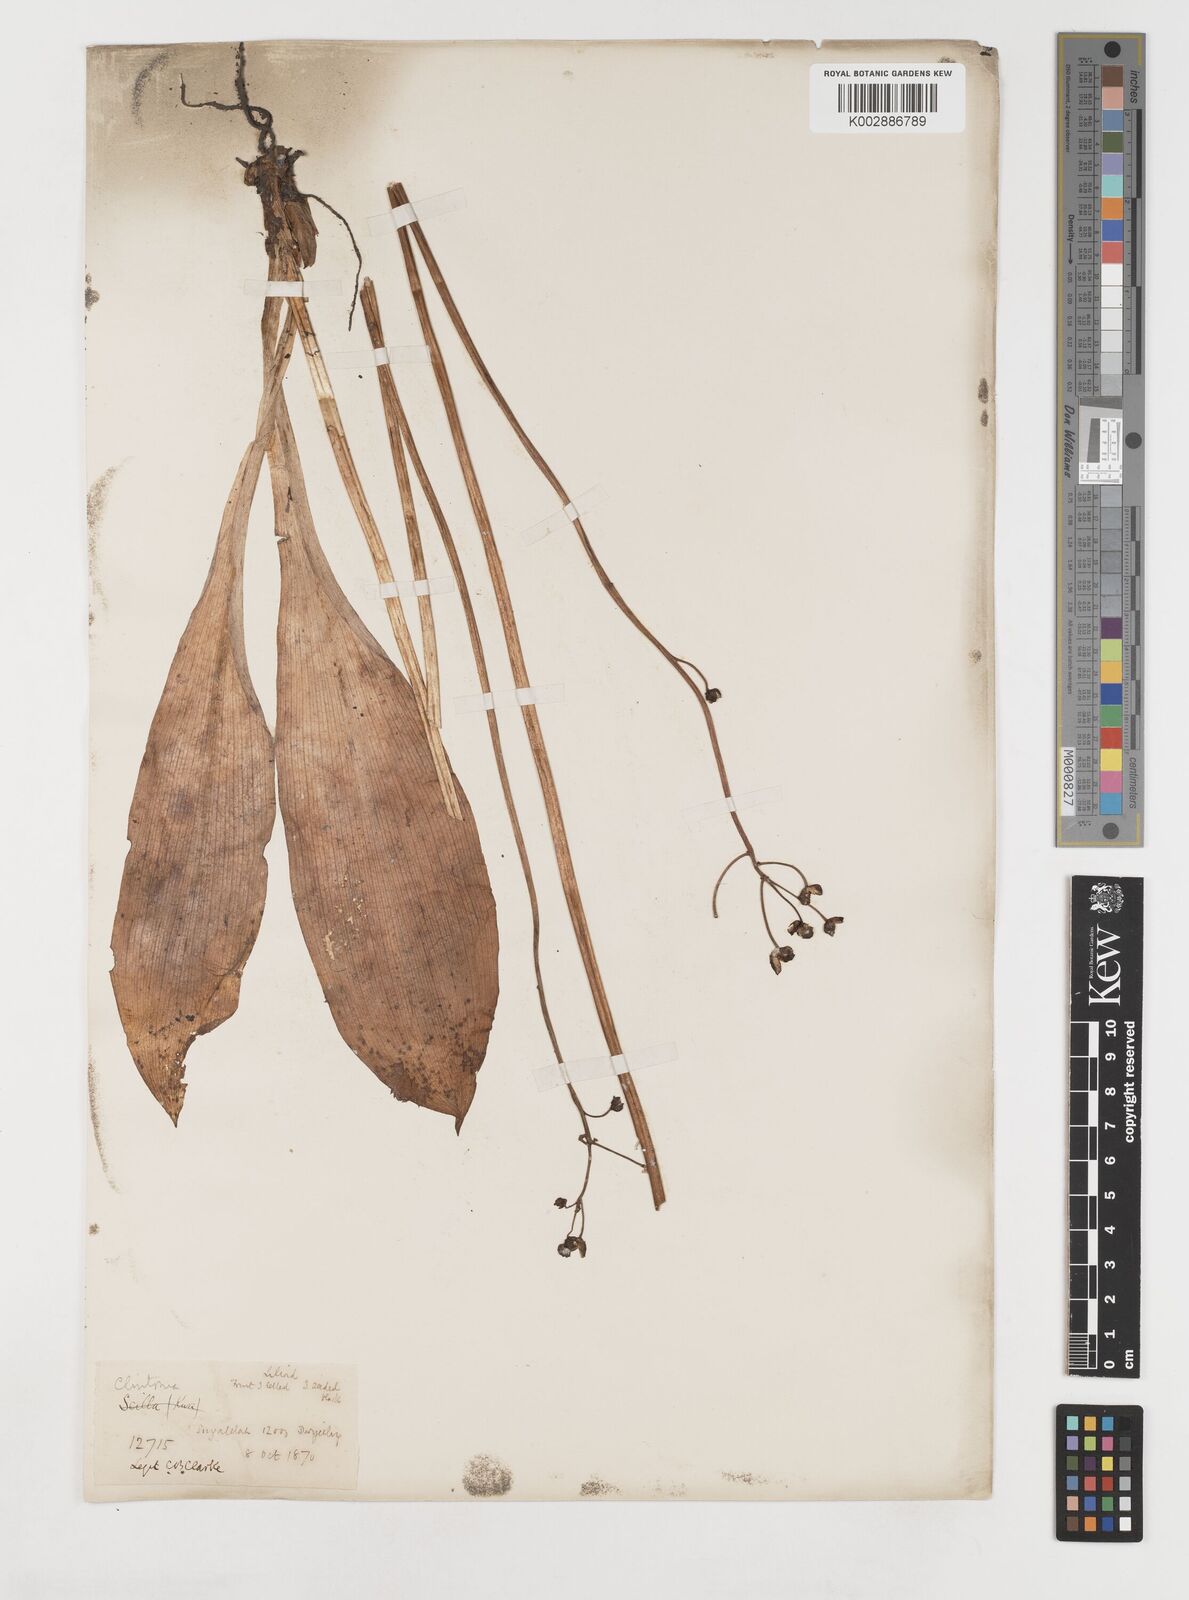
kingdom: Plantae
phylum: Tracheophyta
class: Liliopsida
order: Liliales
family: Liliaceae
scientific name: Liliaceae
